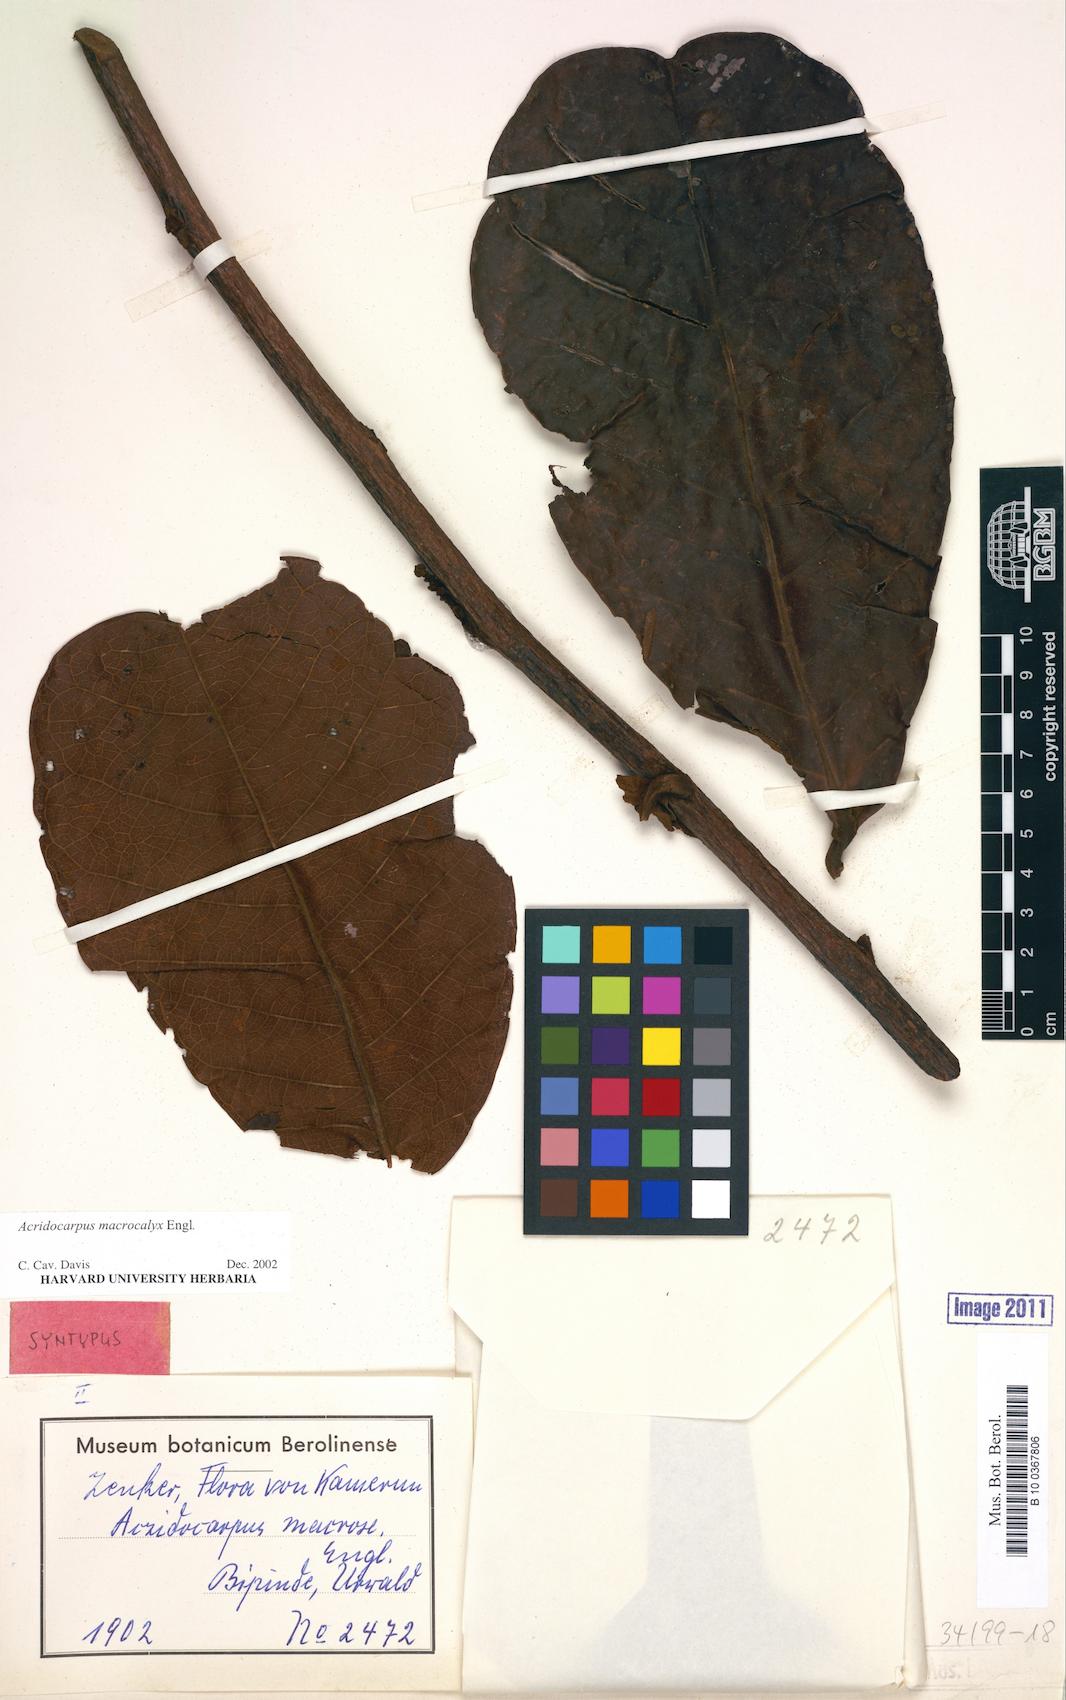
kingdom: Plantae
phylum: Tracheophyta
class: Magnoliopsida
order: Malpighiales
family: Malpighiaceae
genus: Acridocarpus
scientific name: Acridocarpus macrocalyx
